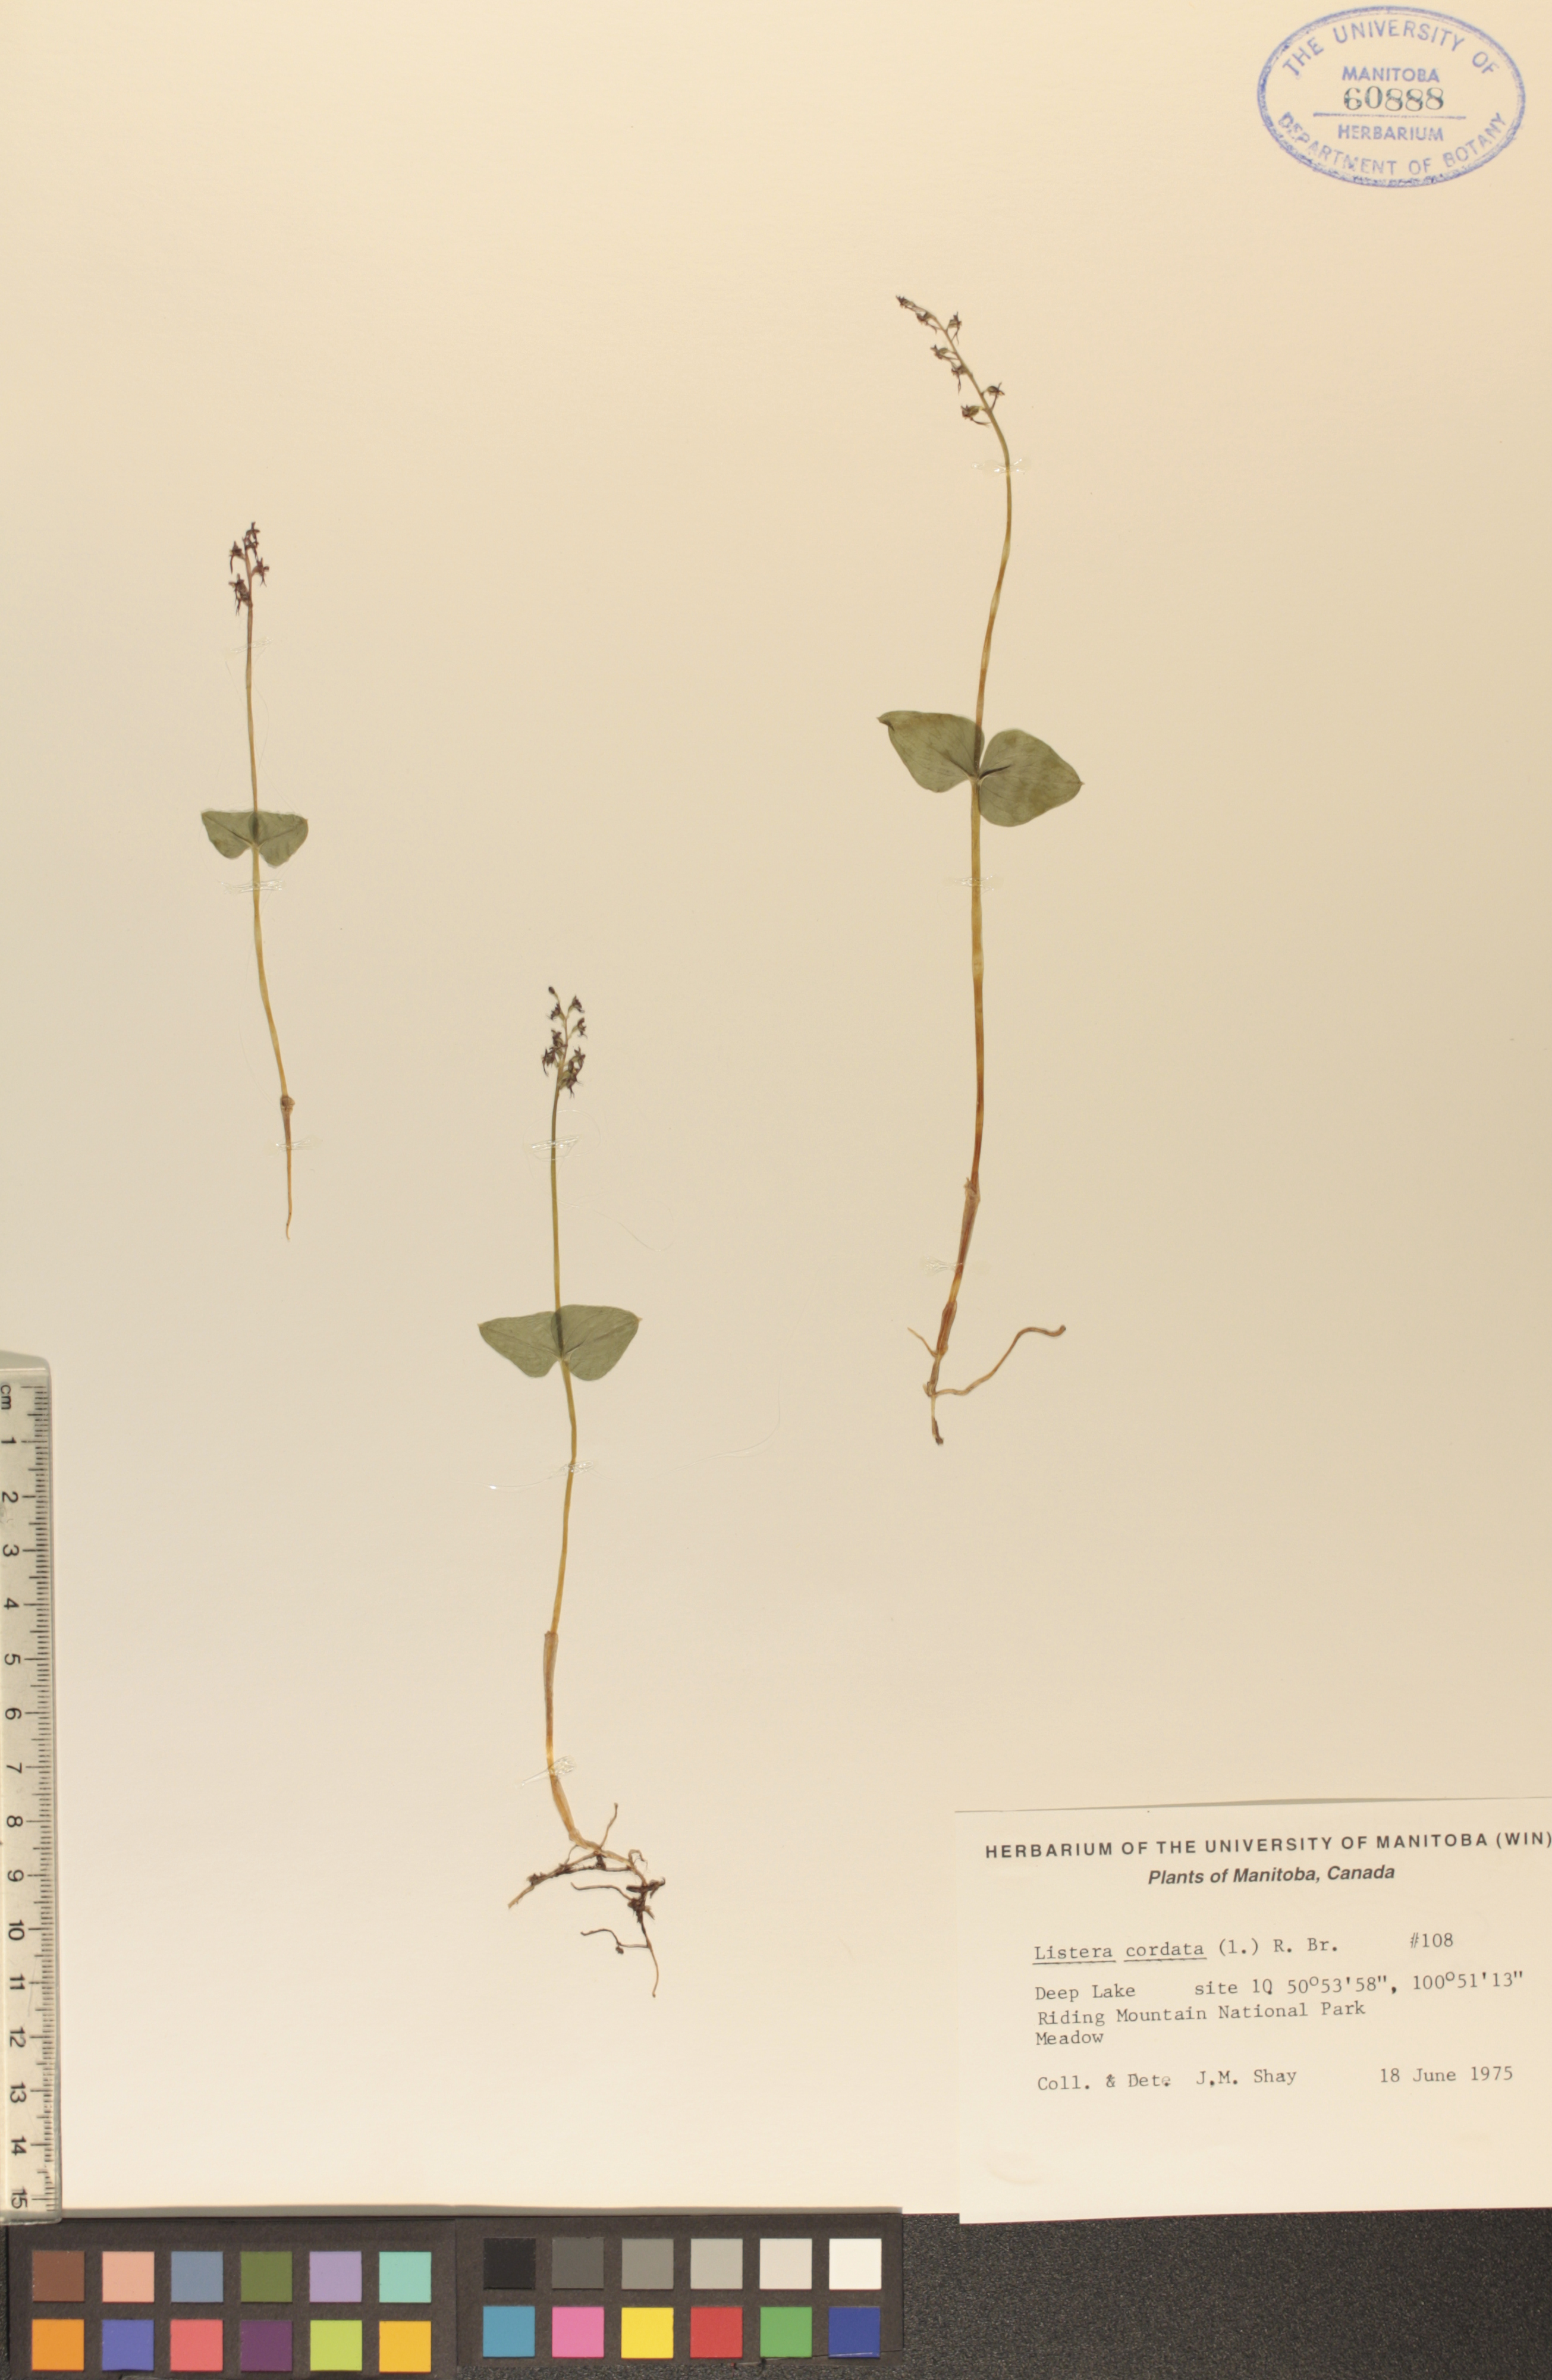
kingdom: Plantae
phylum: Tracheophyta
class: Liliopsida
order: Asparagales
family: Orchidaceae
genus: Neottia
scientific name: Neottia cordata
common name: Lesser twayblade
